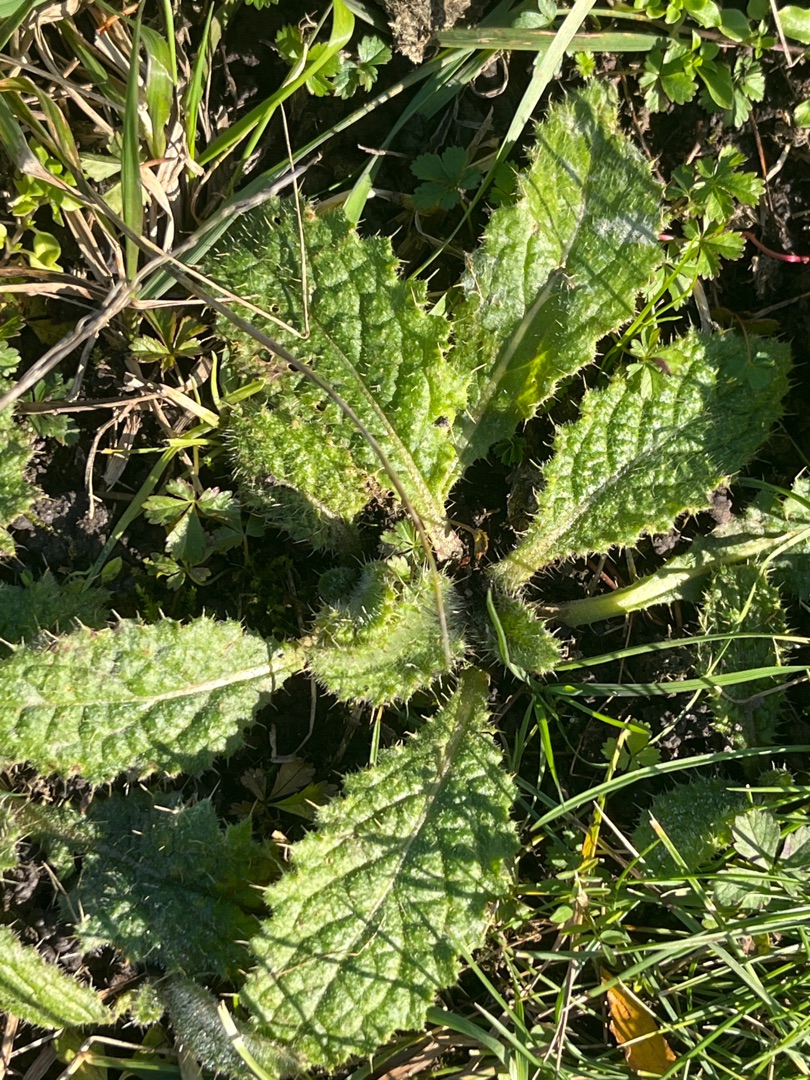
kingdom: Plantae
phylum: Tracheophyta
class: Magnoliopsida
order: Asterales
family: Asteraceae
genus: Cirsium
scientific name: Cirsium vulgare
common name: Horse-tidsel
